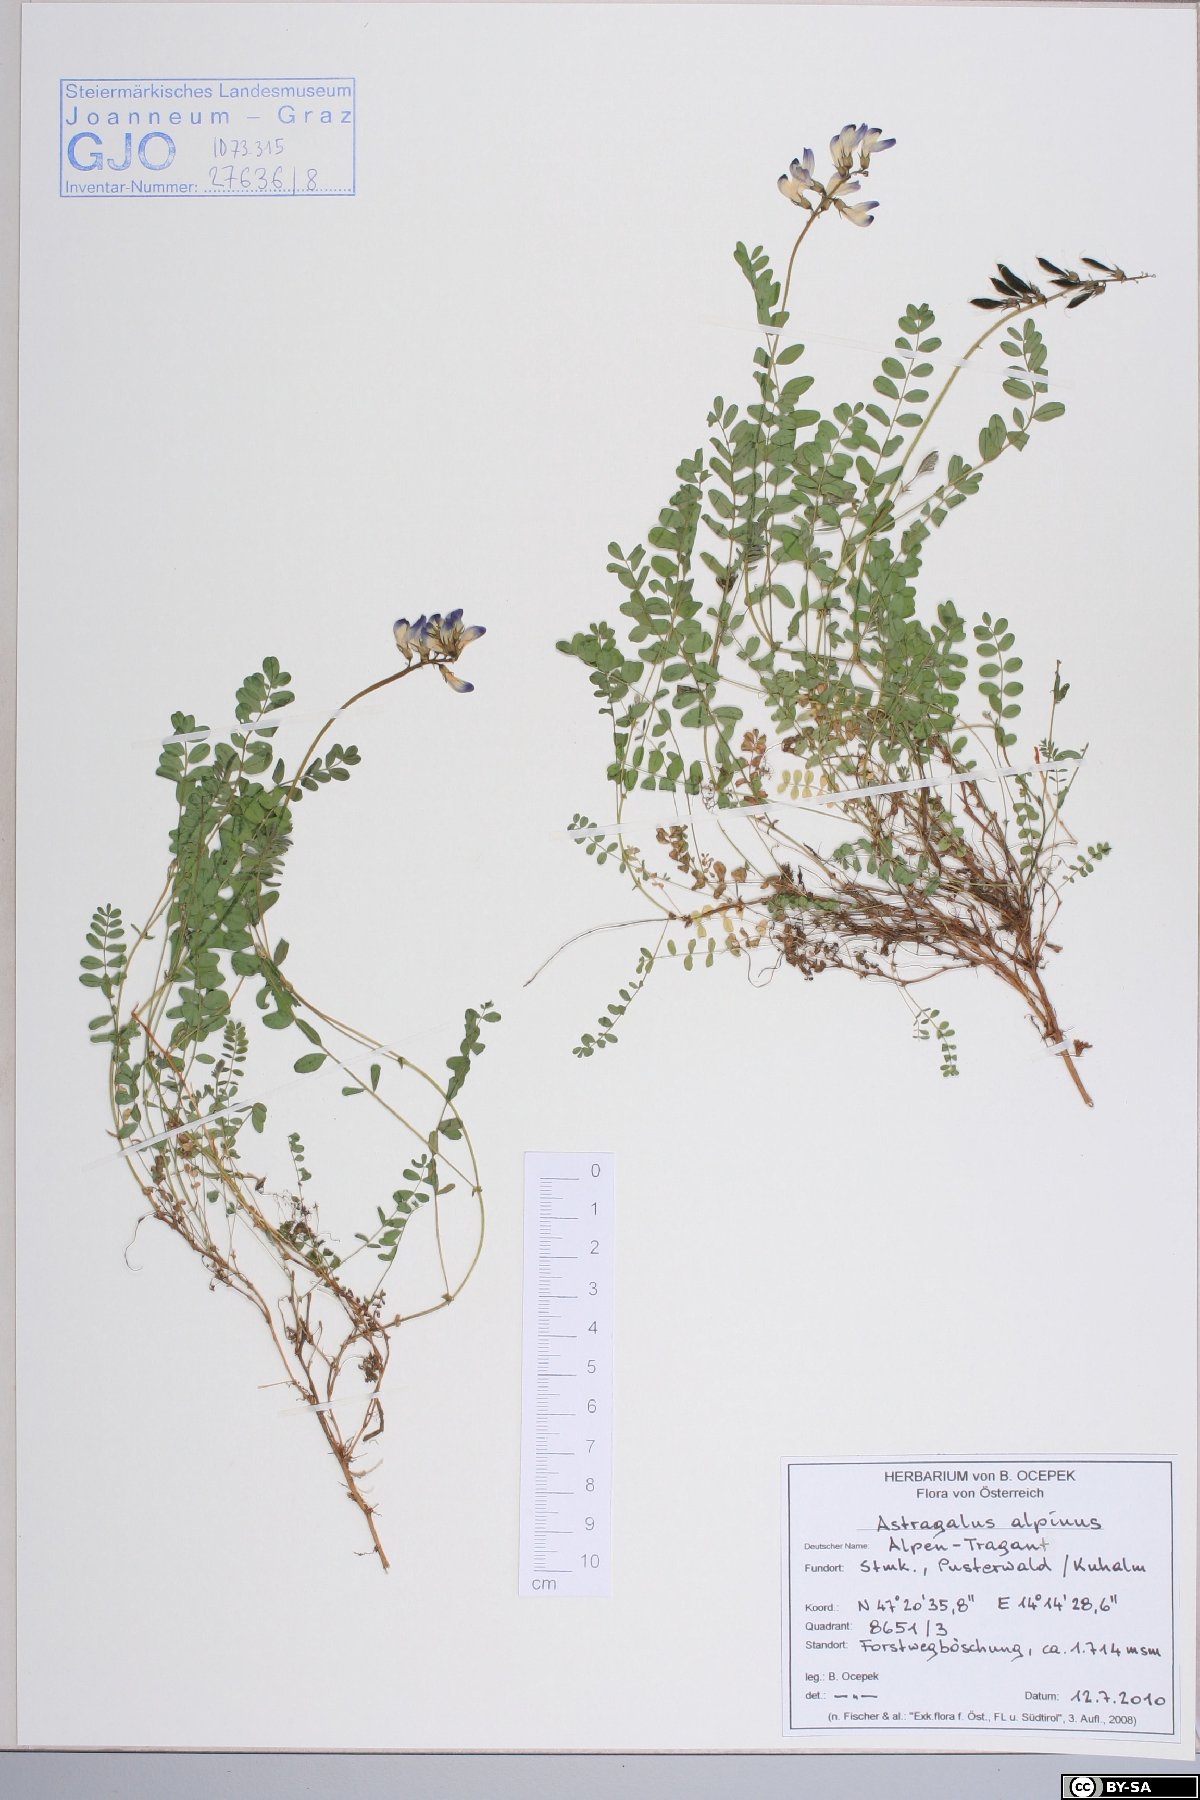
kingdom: Plantae
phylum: Tracheophyta
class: Magnoliopsida
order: Fabales
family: Fabaceae
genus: Astragalus
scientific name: Astragalus alpinus
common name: Alpine milk-vetch
